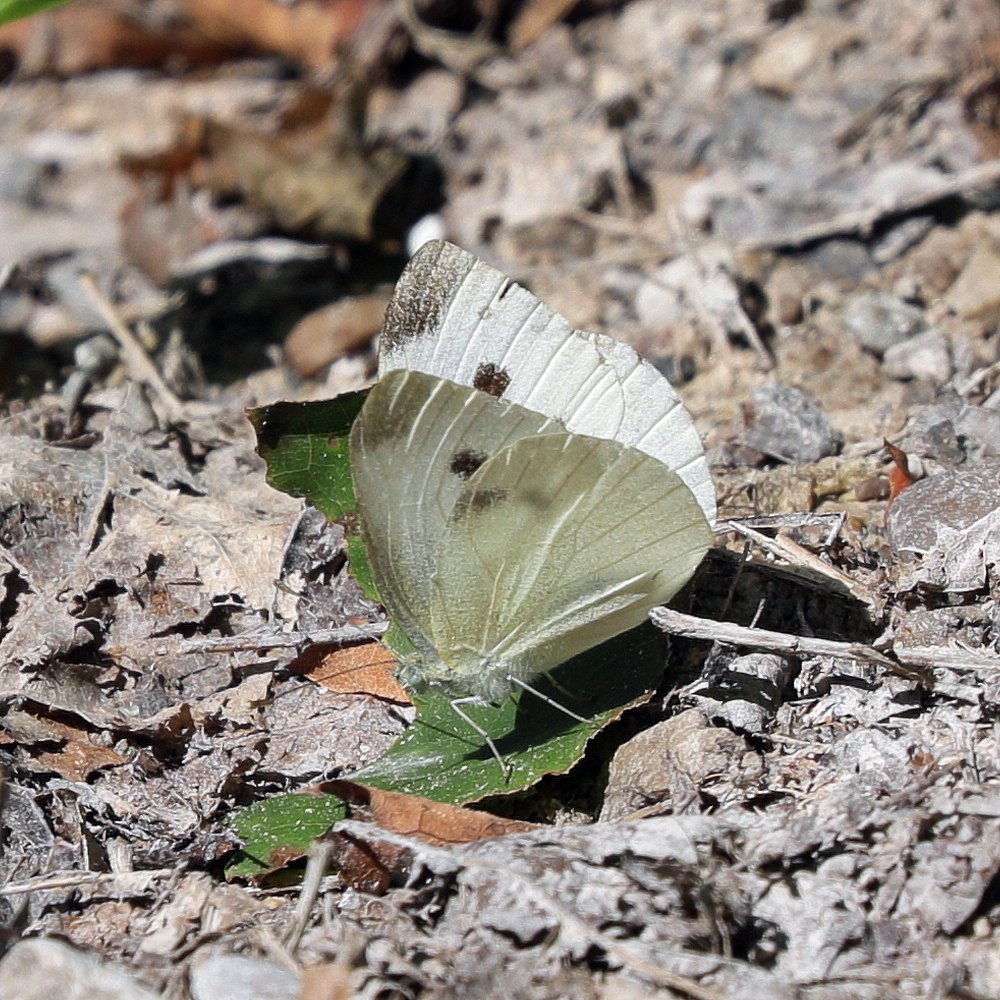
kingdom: Animalia
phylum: Arthropoda
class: Insecta
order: Lepidoptera
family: Pieridae
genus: Pieris
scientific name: Pieris rapae
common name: Cabbage White
